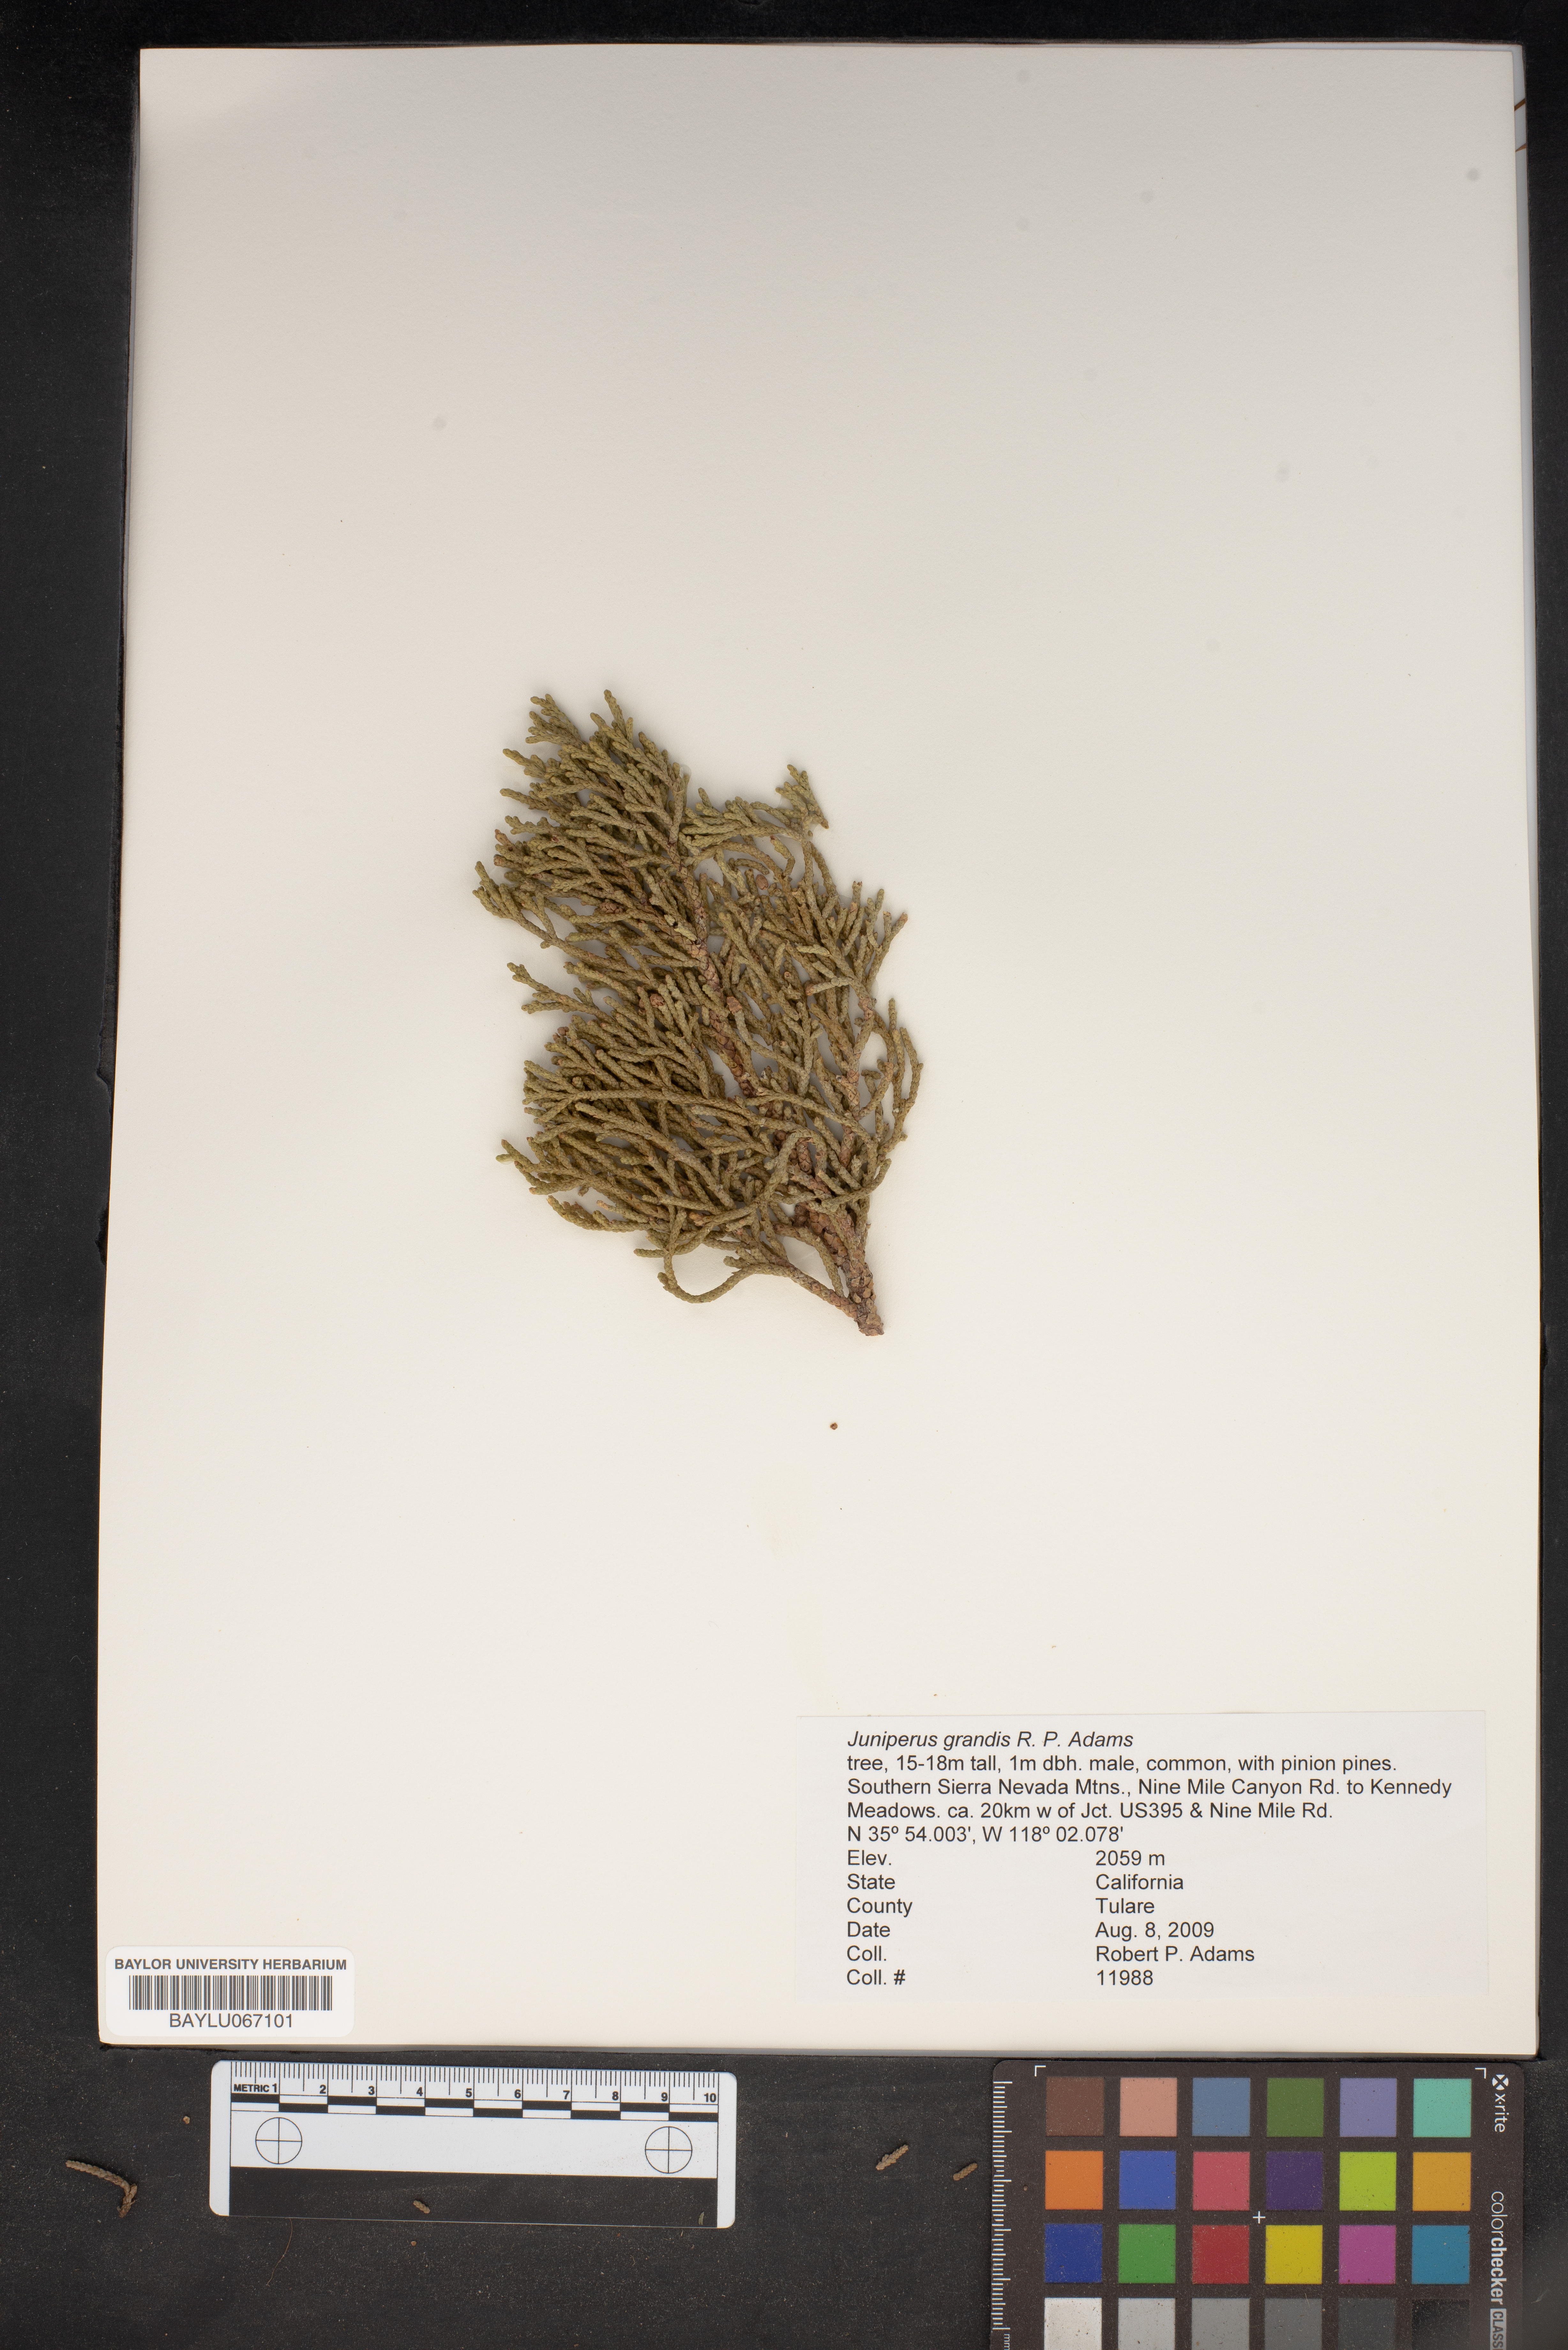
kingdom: Plantae
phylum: Tracheophyta
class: Pinopsida
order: Pinales
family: Cupressaceae
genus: Juniperus
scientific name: Juniperus occidentalis
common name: Western juniper
